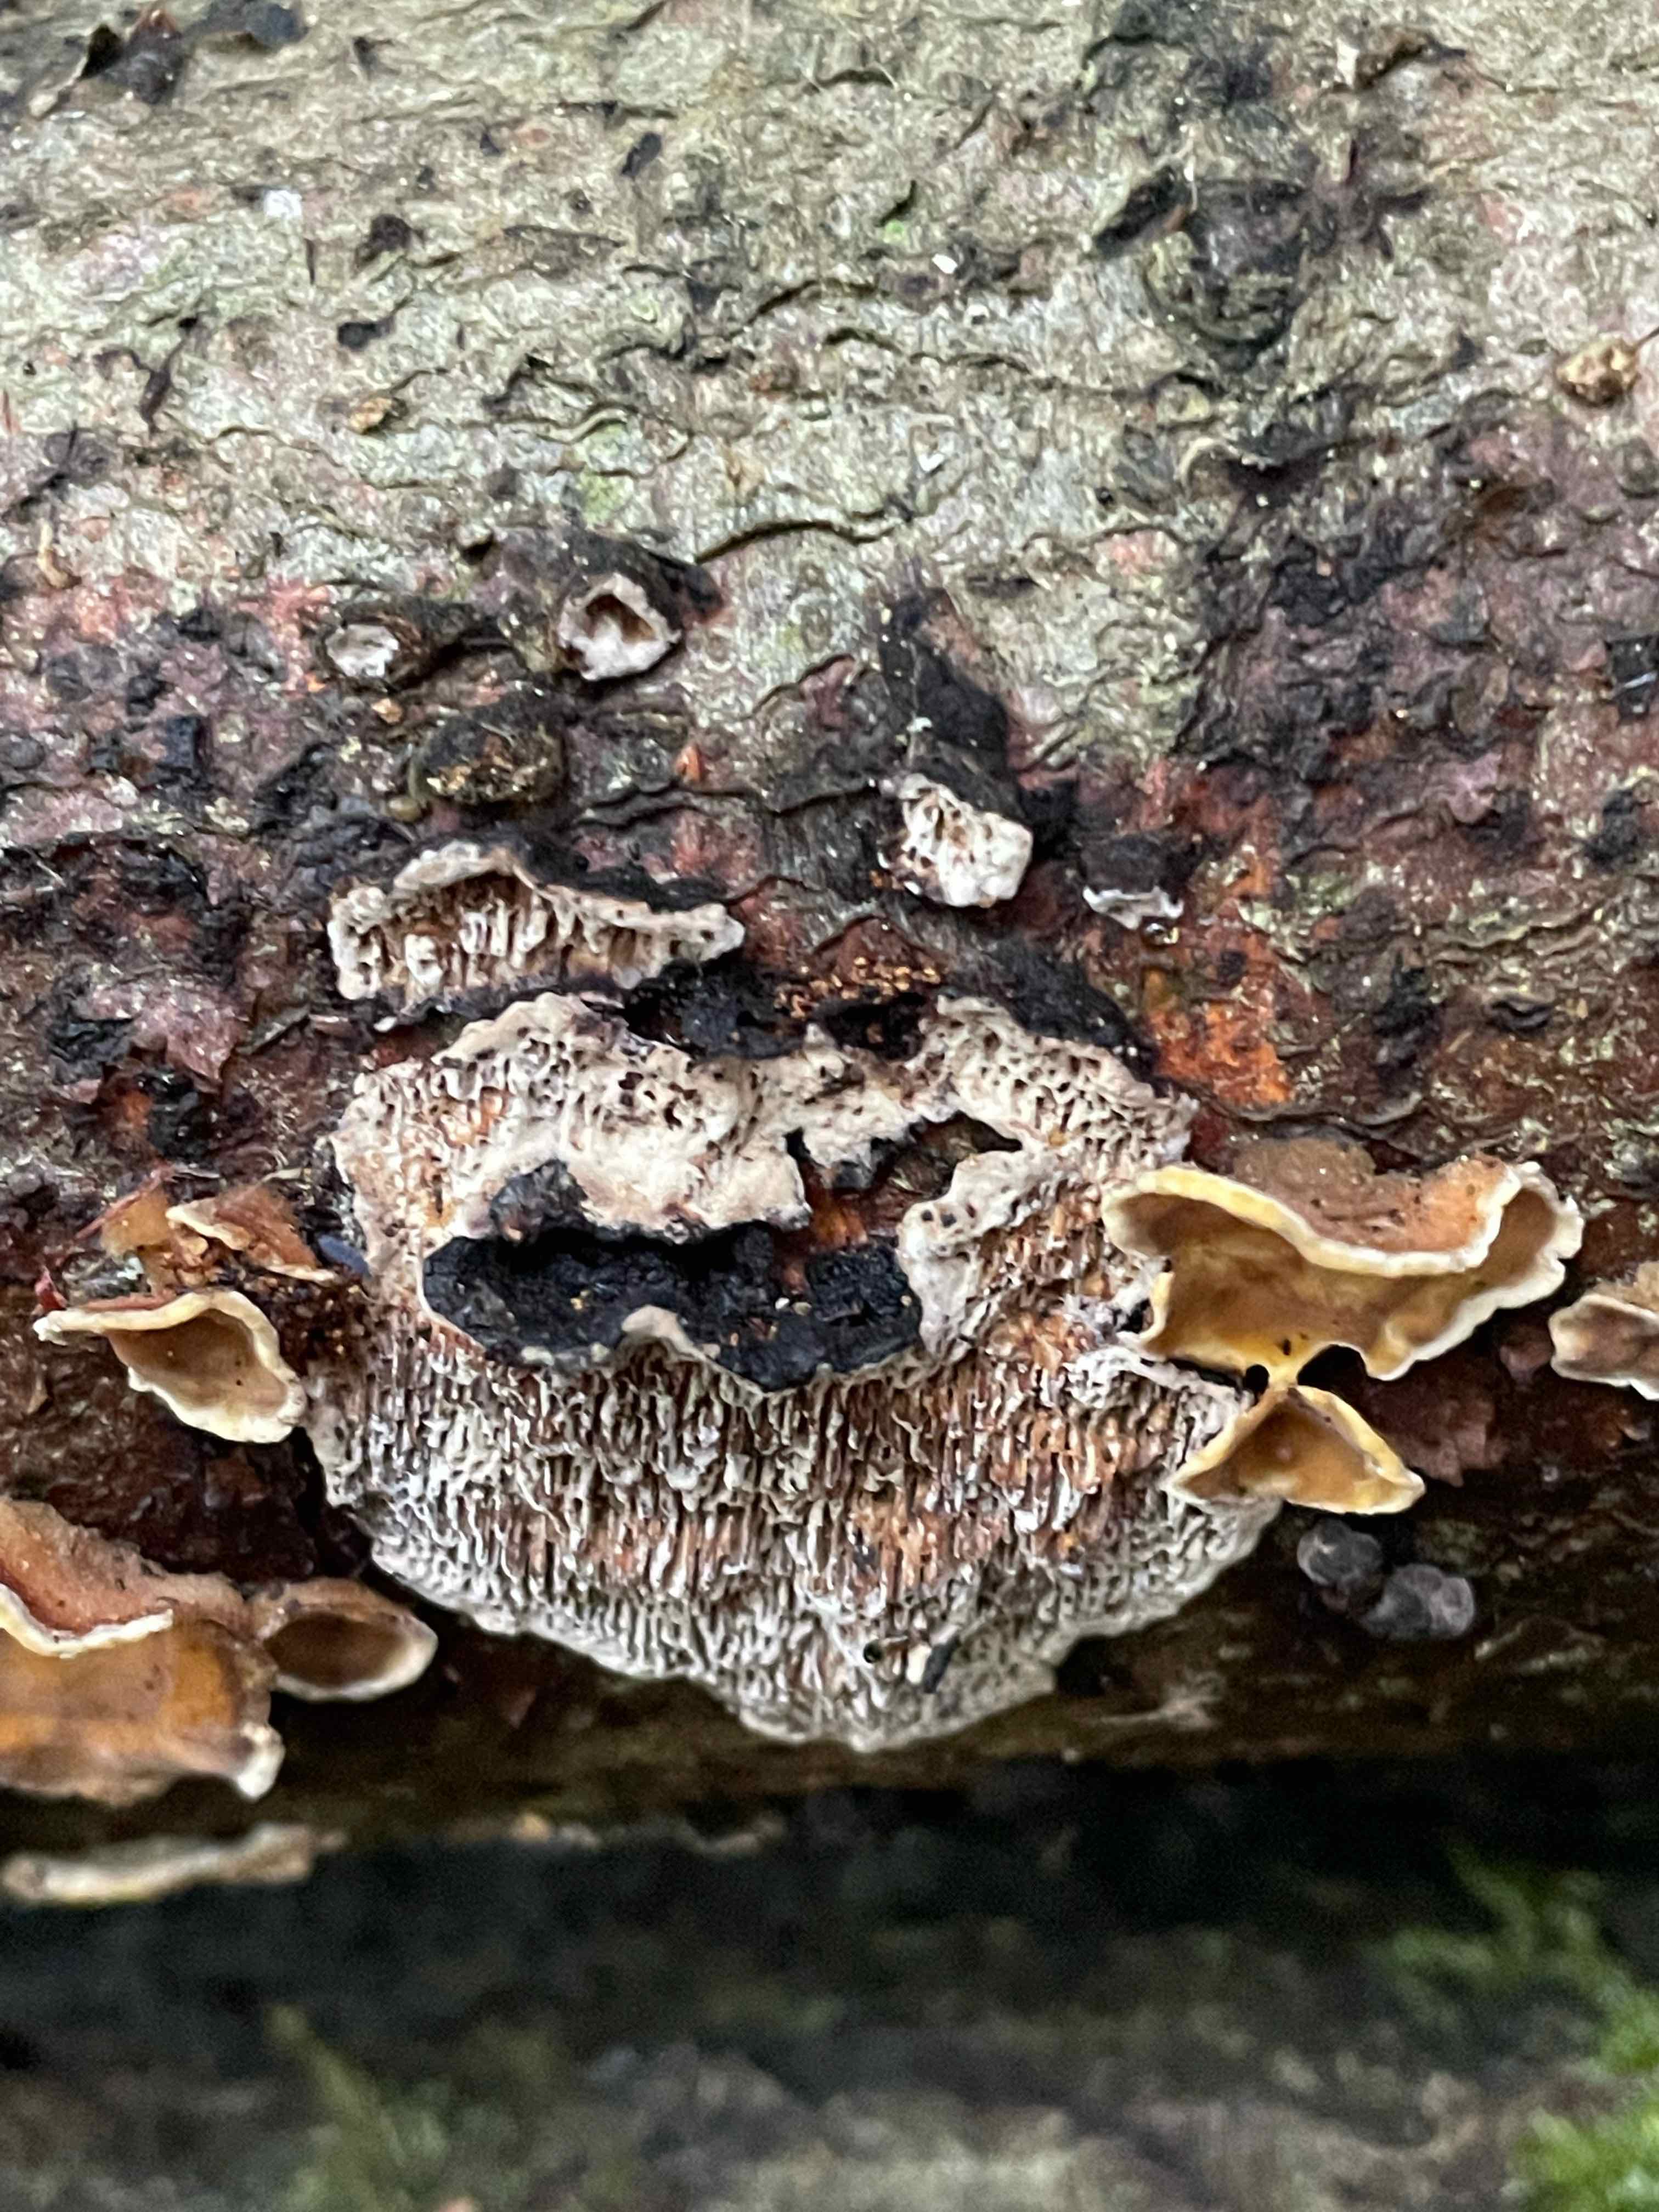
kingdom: Fungi
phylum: Basidiomycota
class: Agaricomycetes
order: Polyporales
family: Polyporaceae
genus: Podofomes
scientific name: Podofomes mollis
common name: blød begporesvamp
